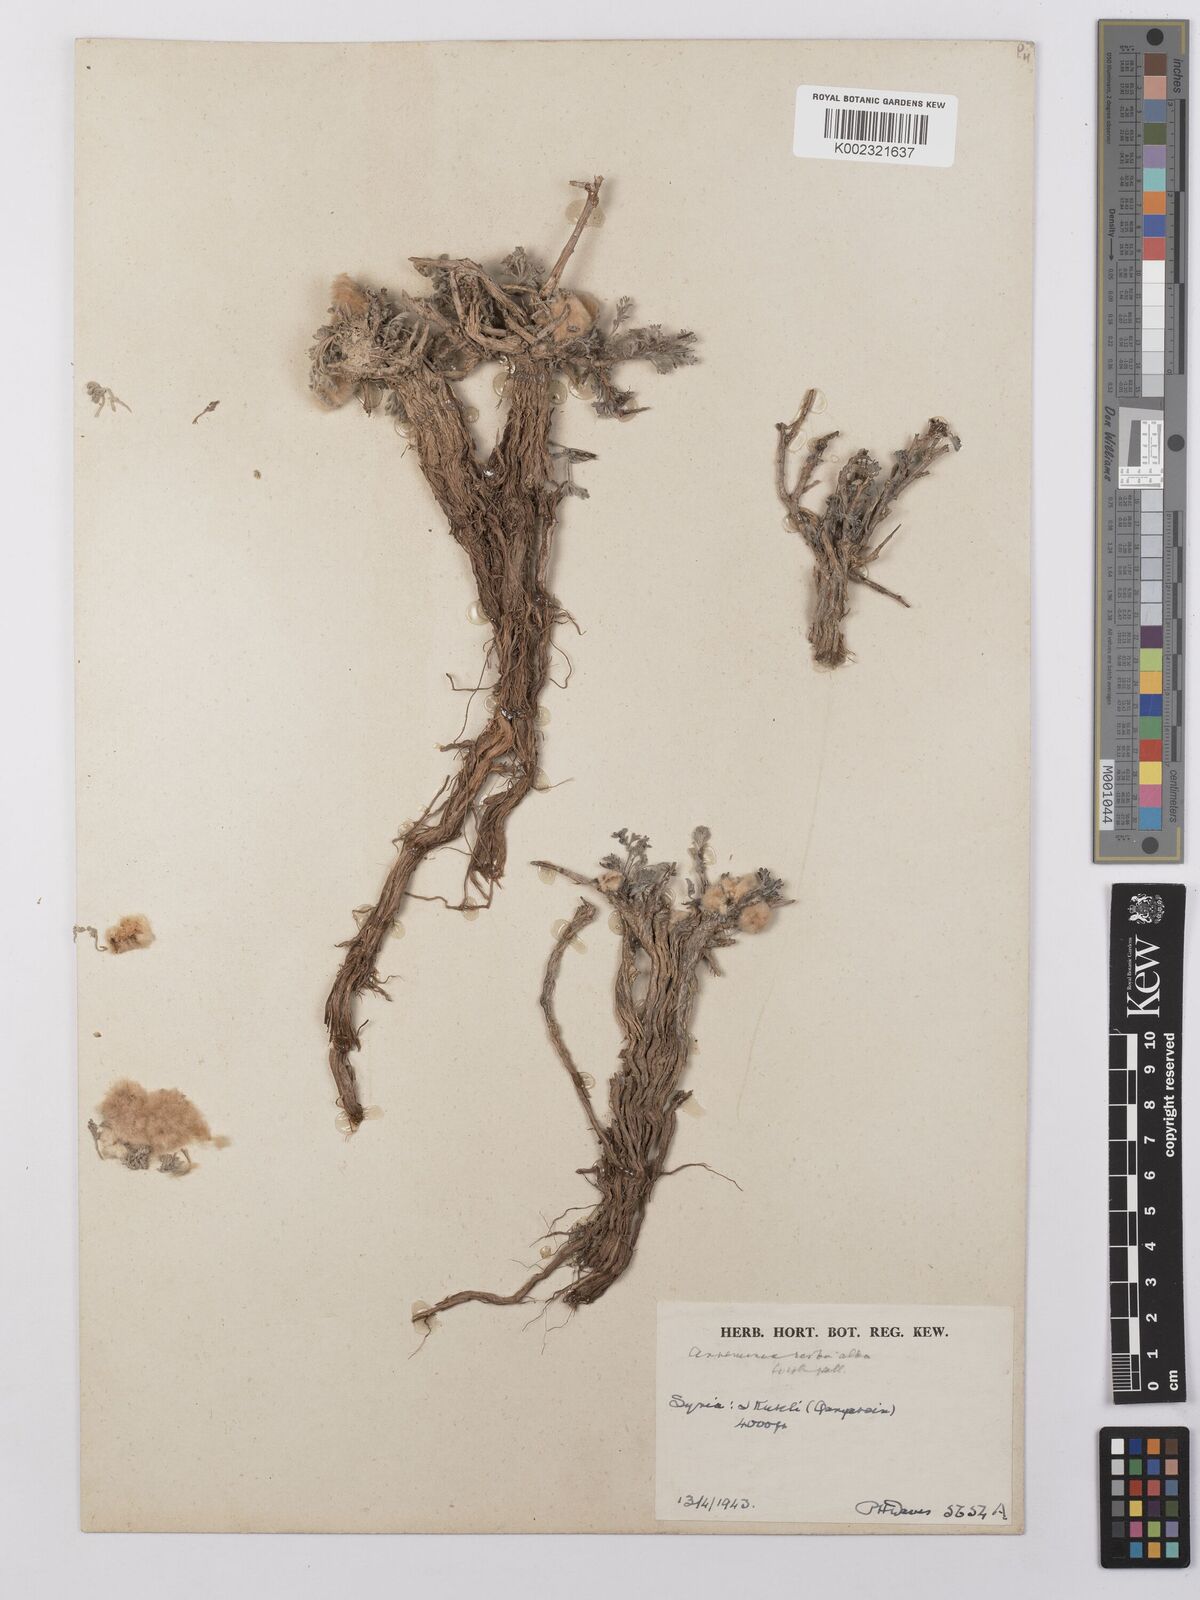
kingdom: Plantae
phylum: Tracheophyta
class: Magnoliopsida
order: Asterales
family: Asteraceae
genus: Artemisia
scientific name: Artemisia herba-alba
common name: White wormwood
